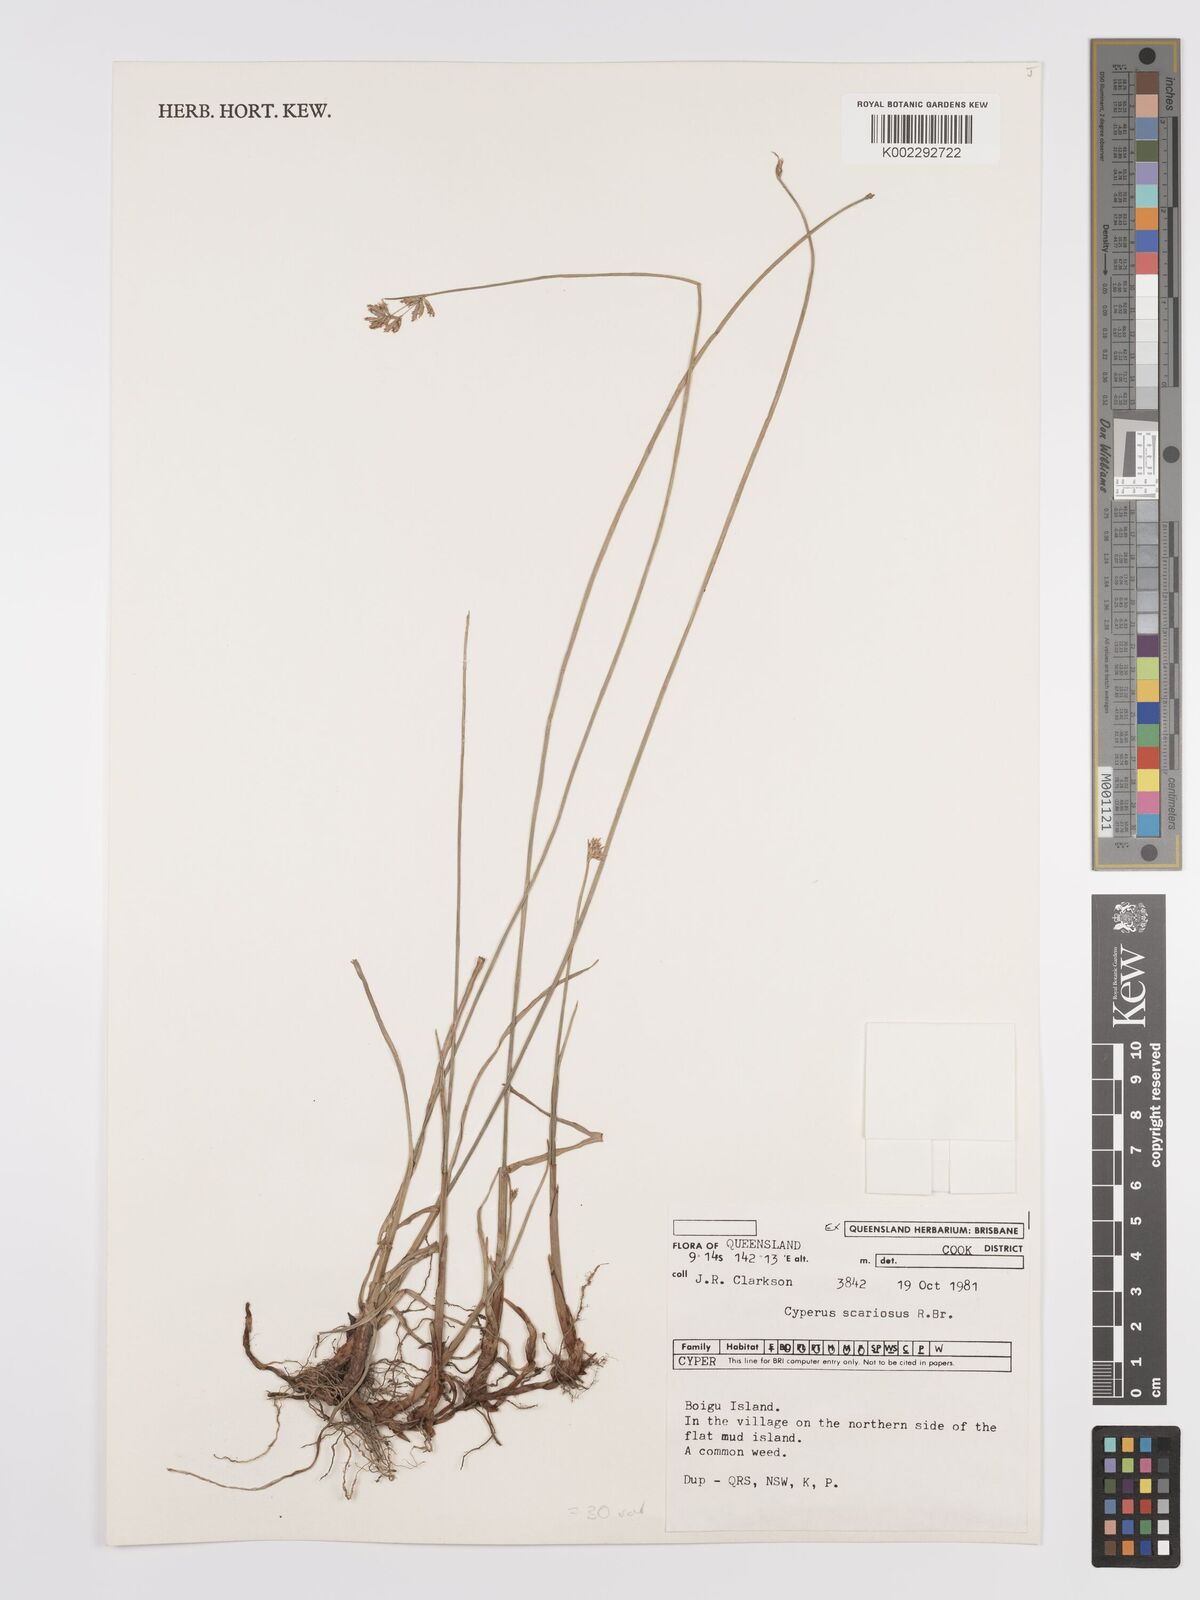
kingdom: Plantae
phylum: Tracheophyta
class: Liliopsida
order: Poales
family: Cyperaceae
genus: Cyperus
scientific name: Cyperus scariosus
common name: Cypriol
